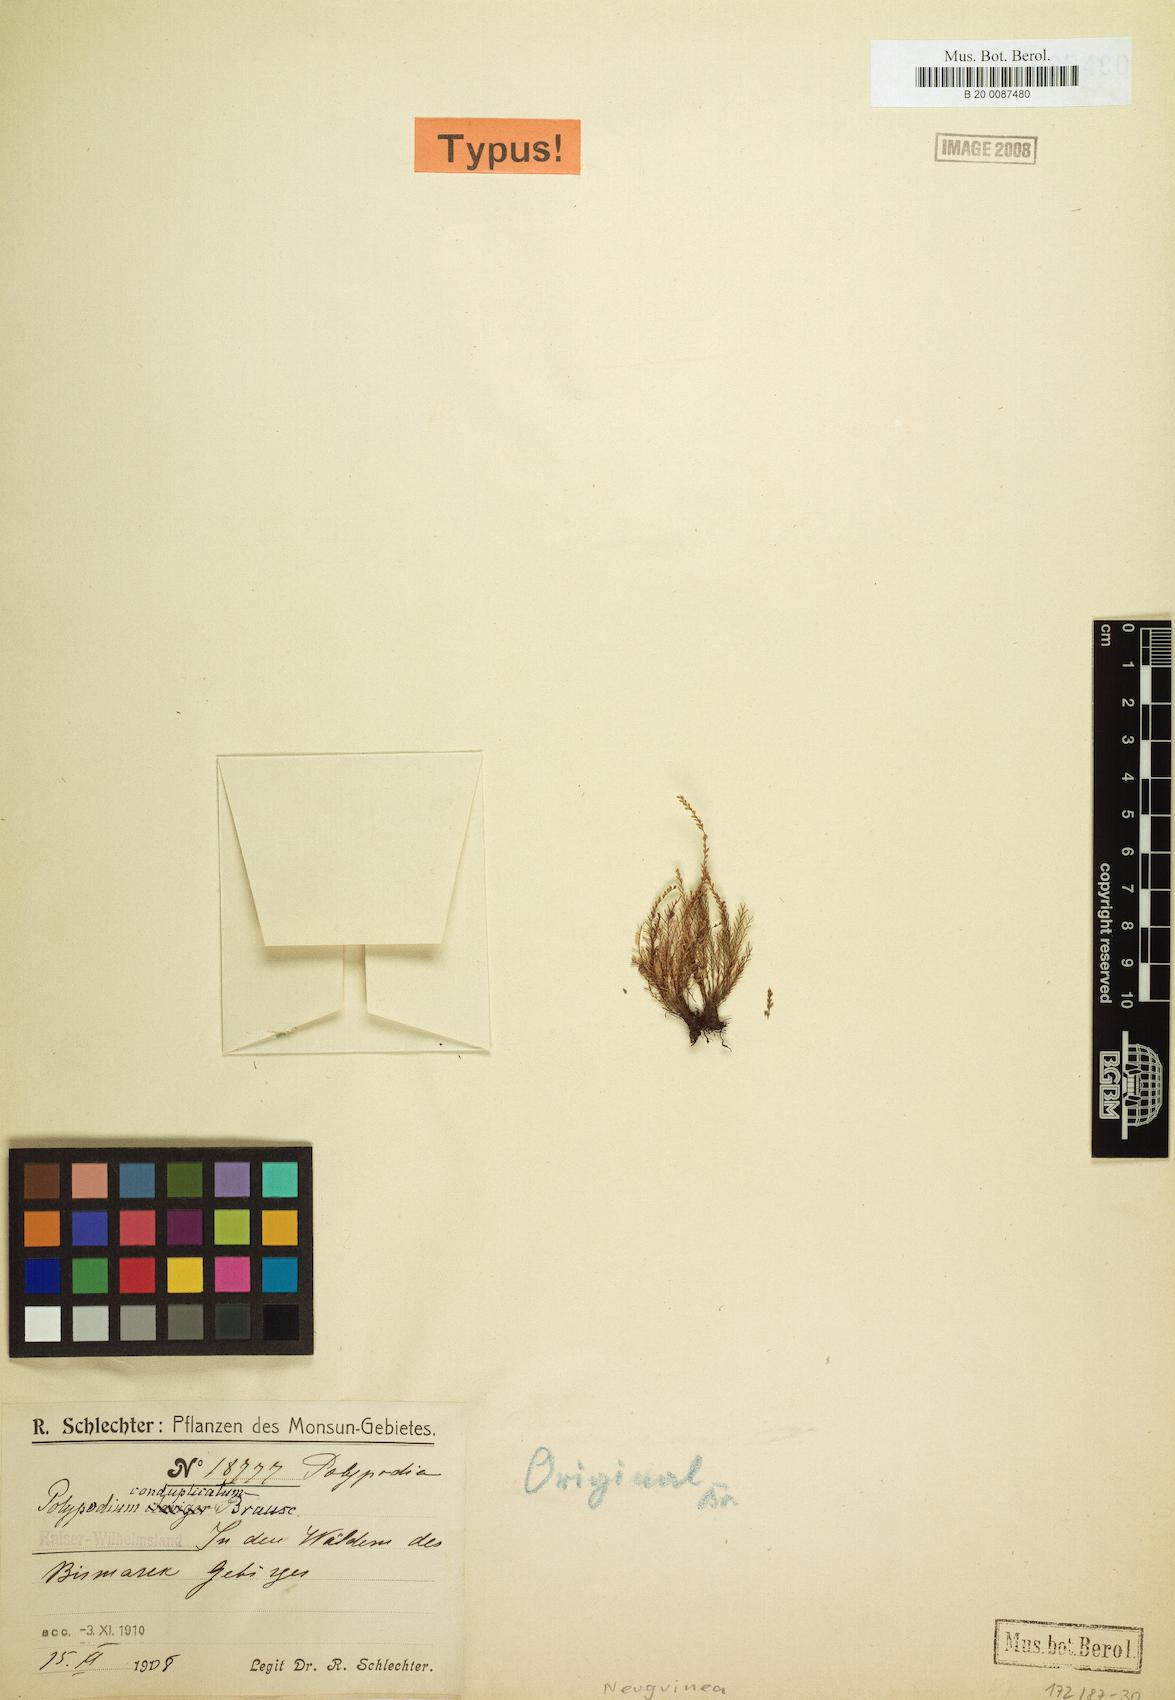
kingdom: Plantae
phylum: Tracheophyta
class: Polypodiopsida
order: Polypodiales
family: Polypodiaceae
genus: Calymmodon
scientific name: Calymmodon conduplicatus
